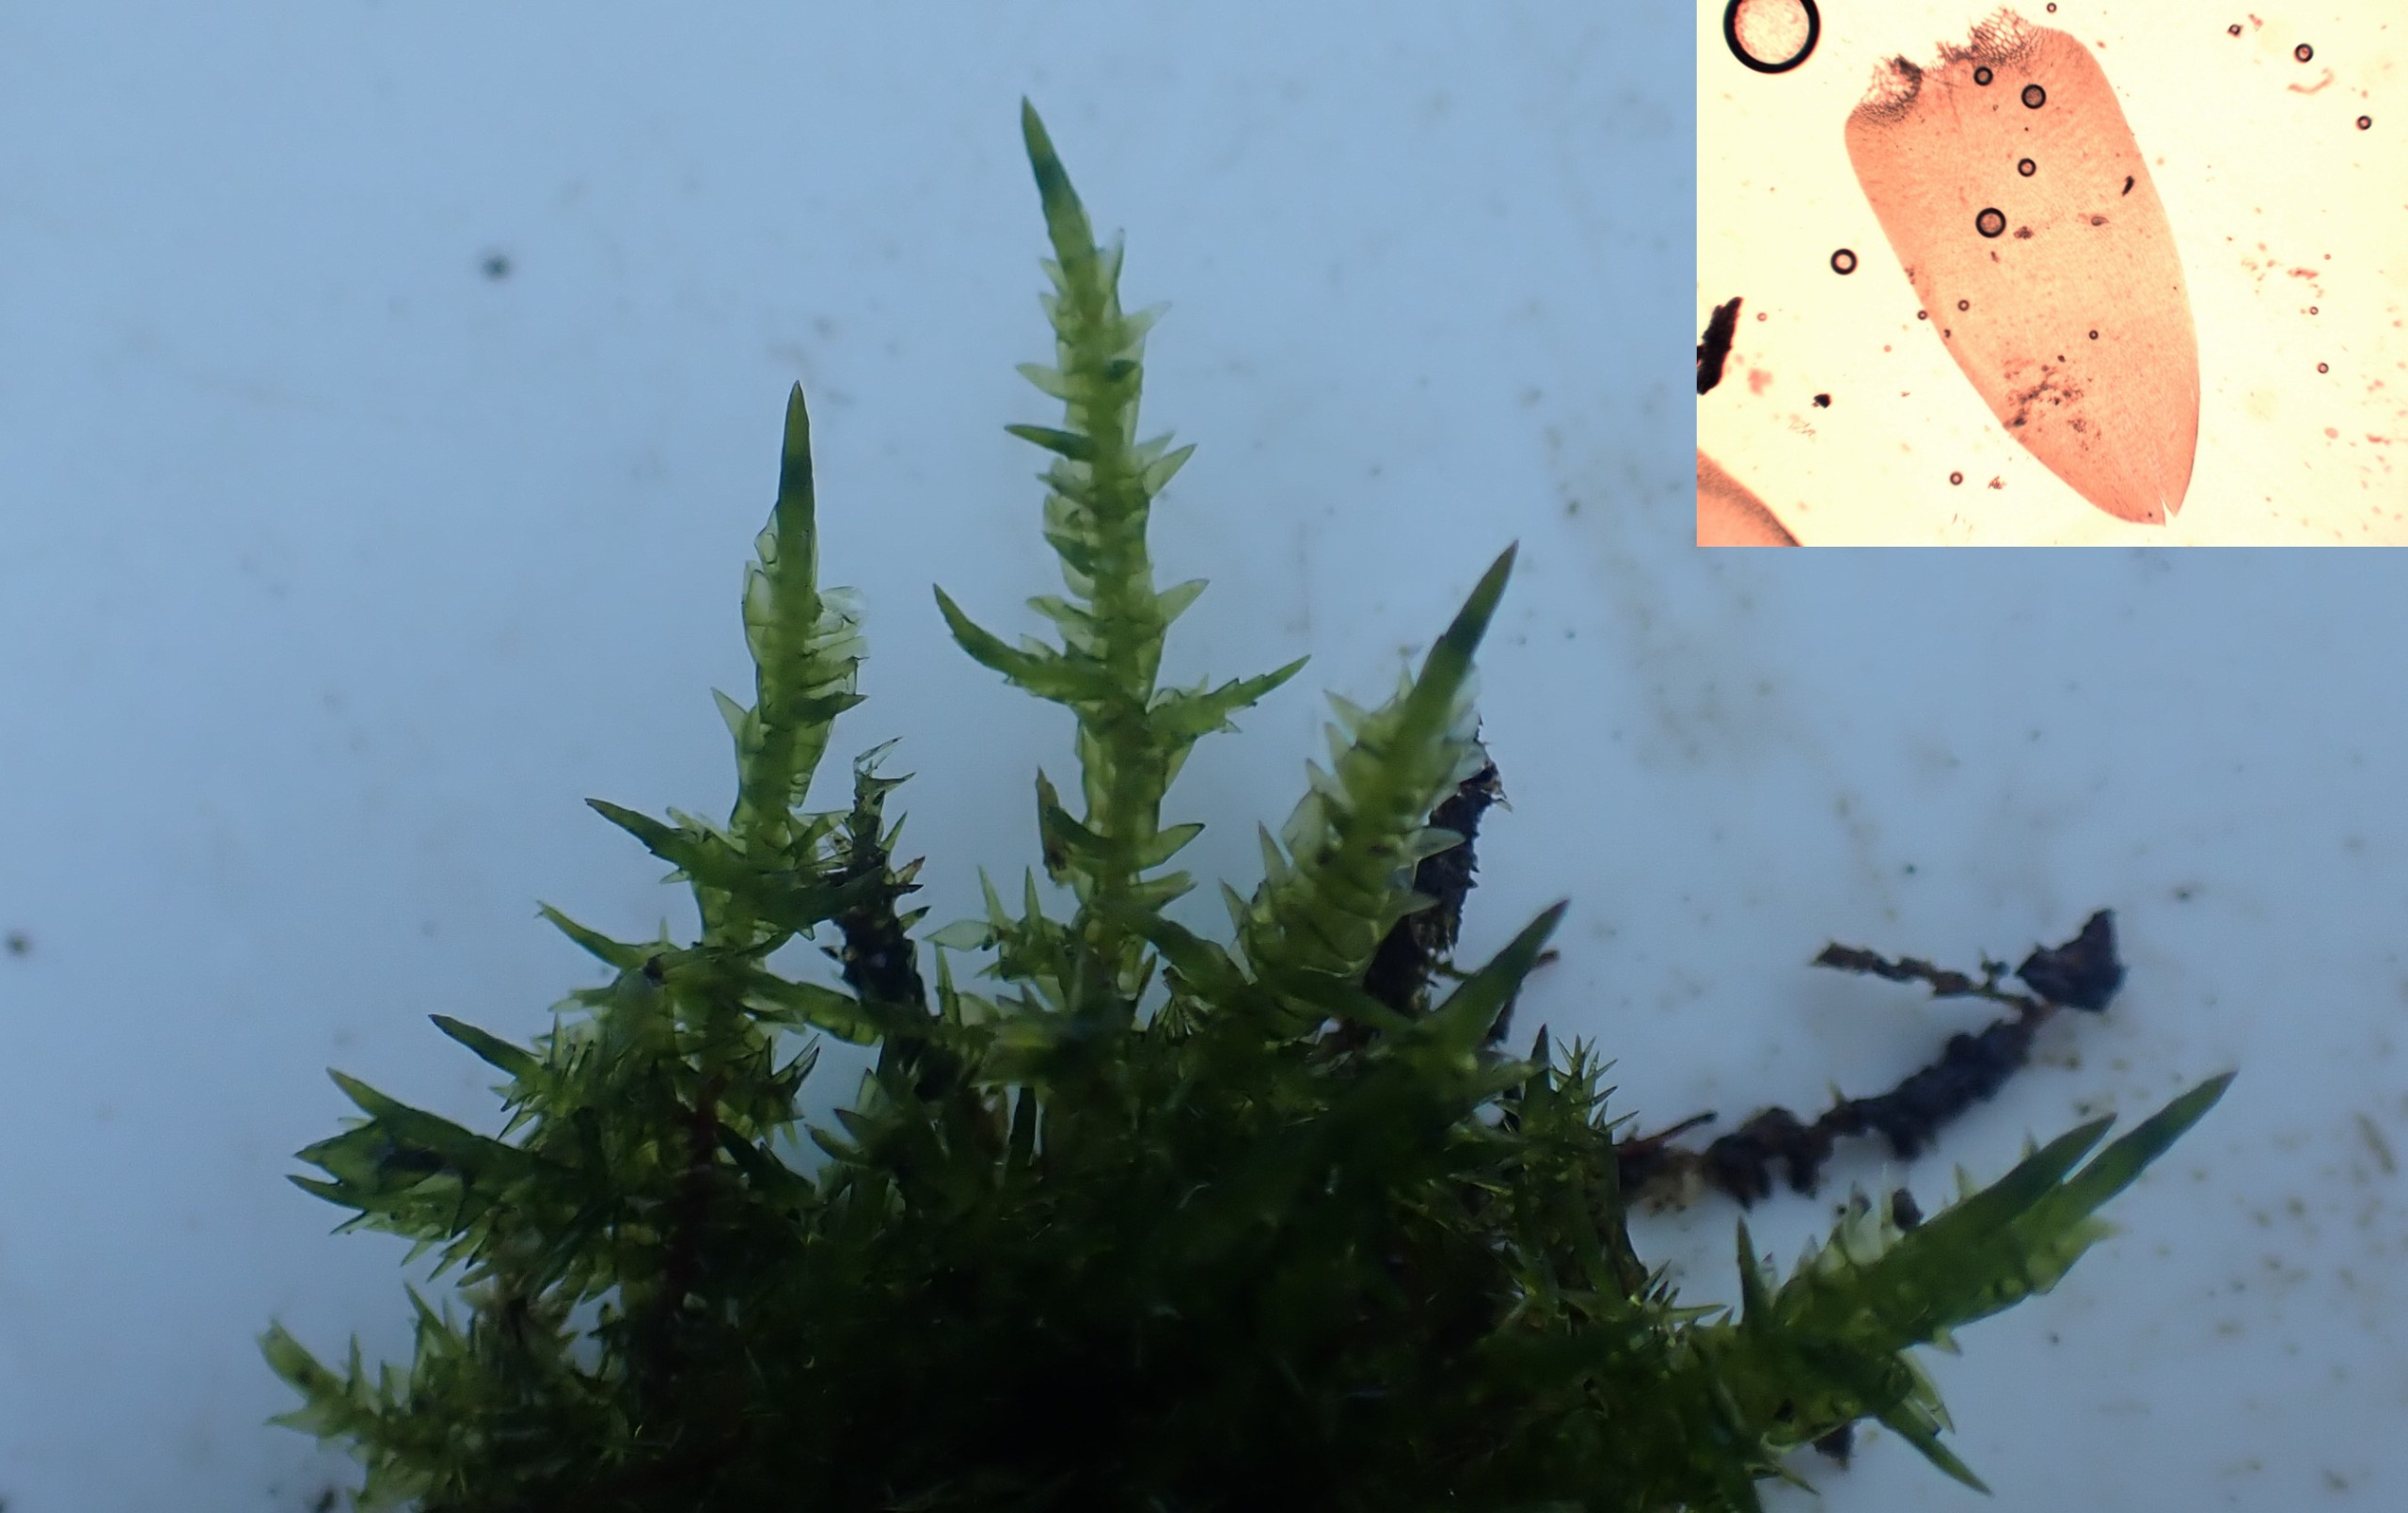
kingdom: Plantae
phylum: Bryophyta
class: Bryopsida
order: Hypnales
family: Pylaisiaceae
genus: Calliergonella
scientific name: Calliergonella cuspidata
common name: Spids spydmos
